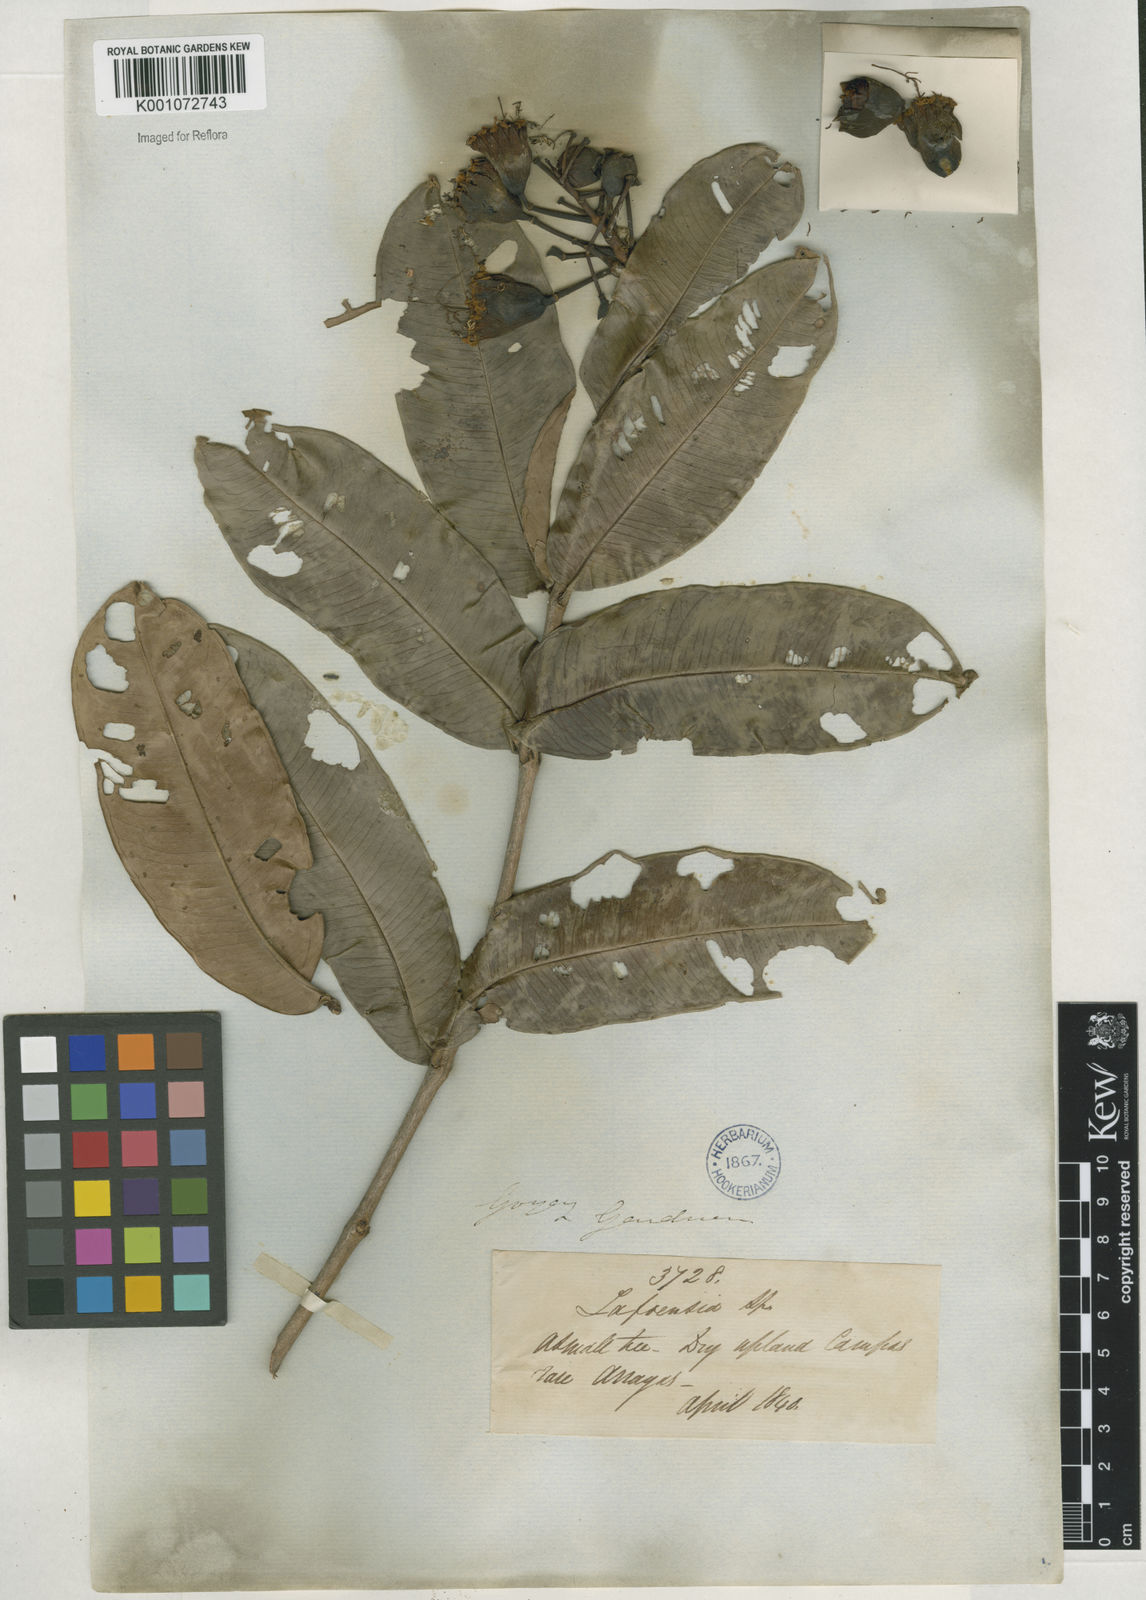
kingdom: Plantae
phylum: Tracheophyta
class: Magnoliopsida
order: Myrtales
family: Lythraceae
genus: Lafoensia
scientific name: Lafoensia vandelliana
